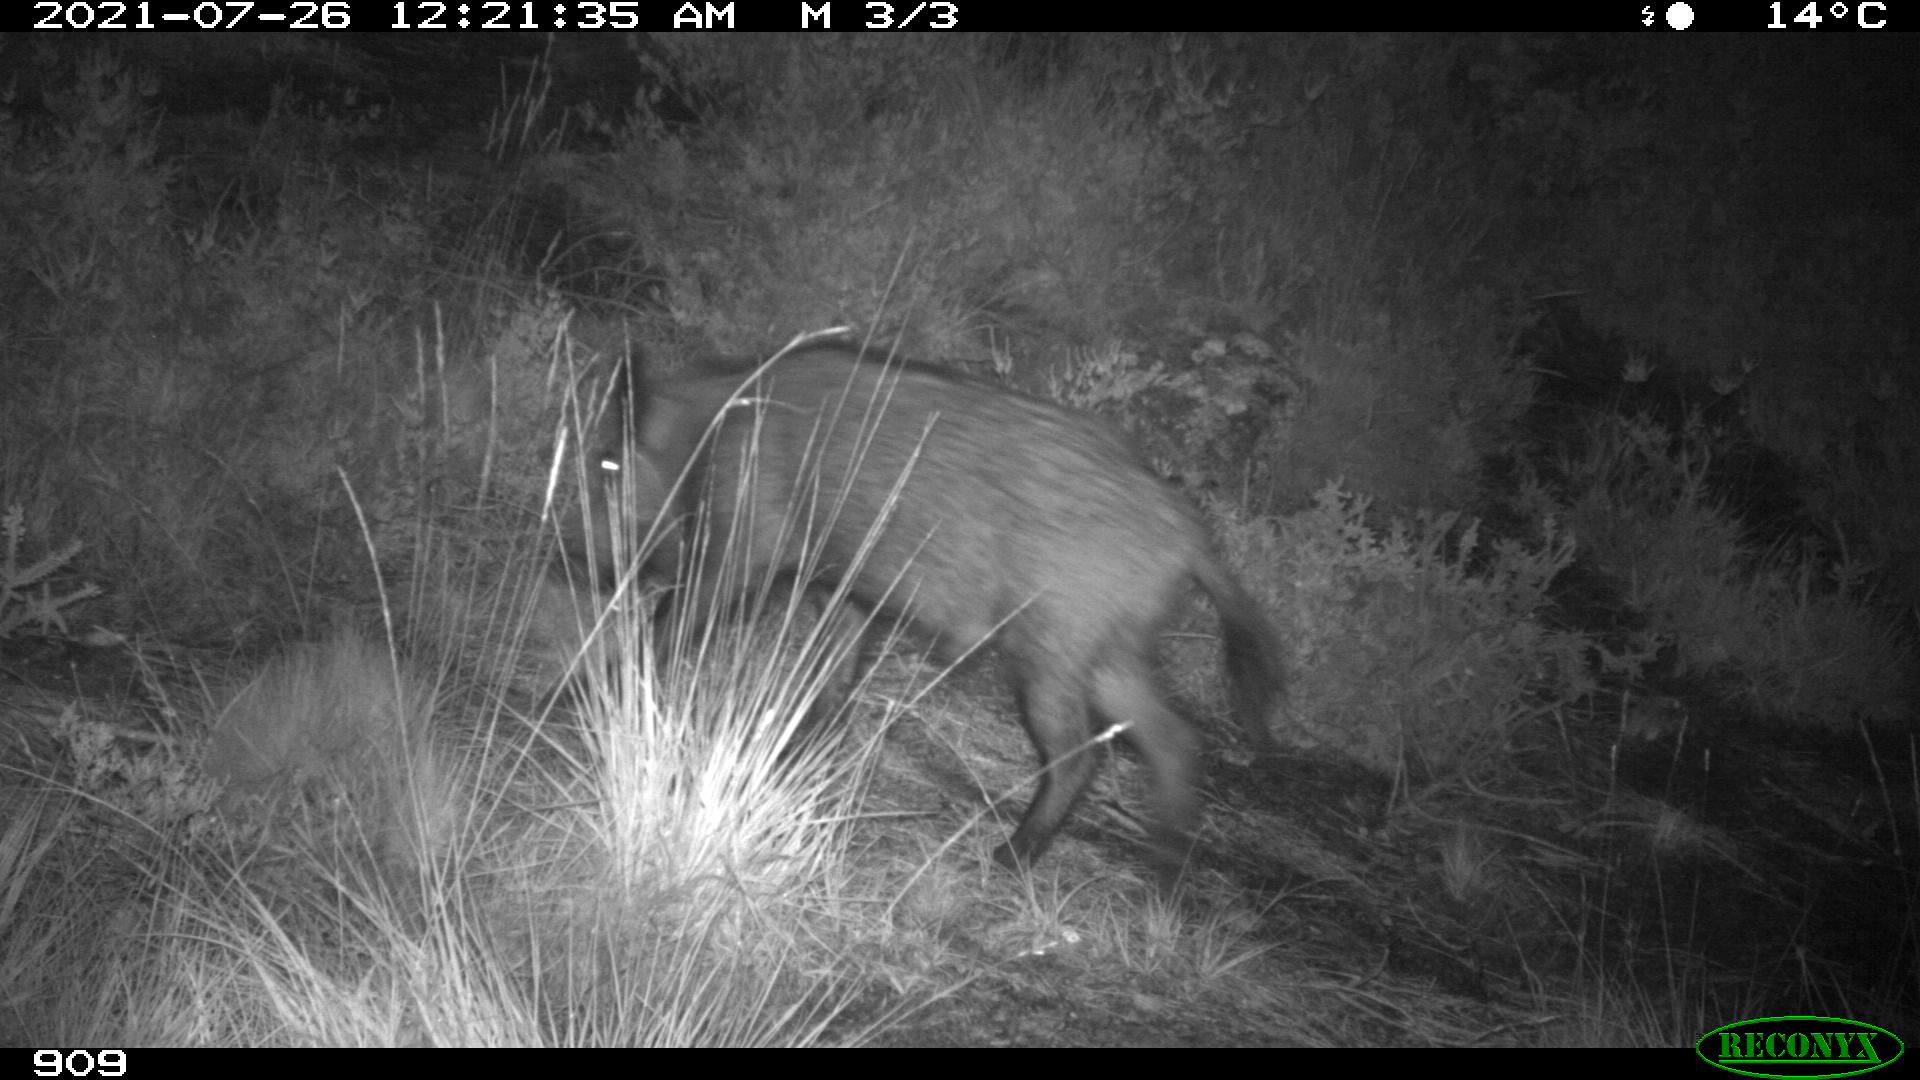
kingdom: Animalia
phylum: Chordata
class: Mammalia
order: Artiodactyla
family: Suidae
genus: Sus
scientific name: Sus scrofa
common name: Wild boar
